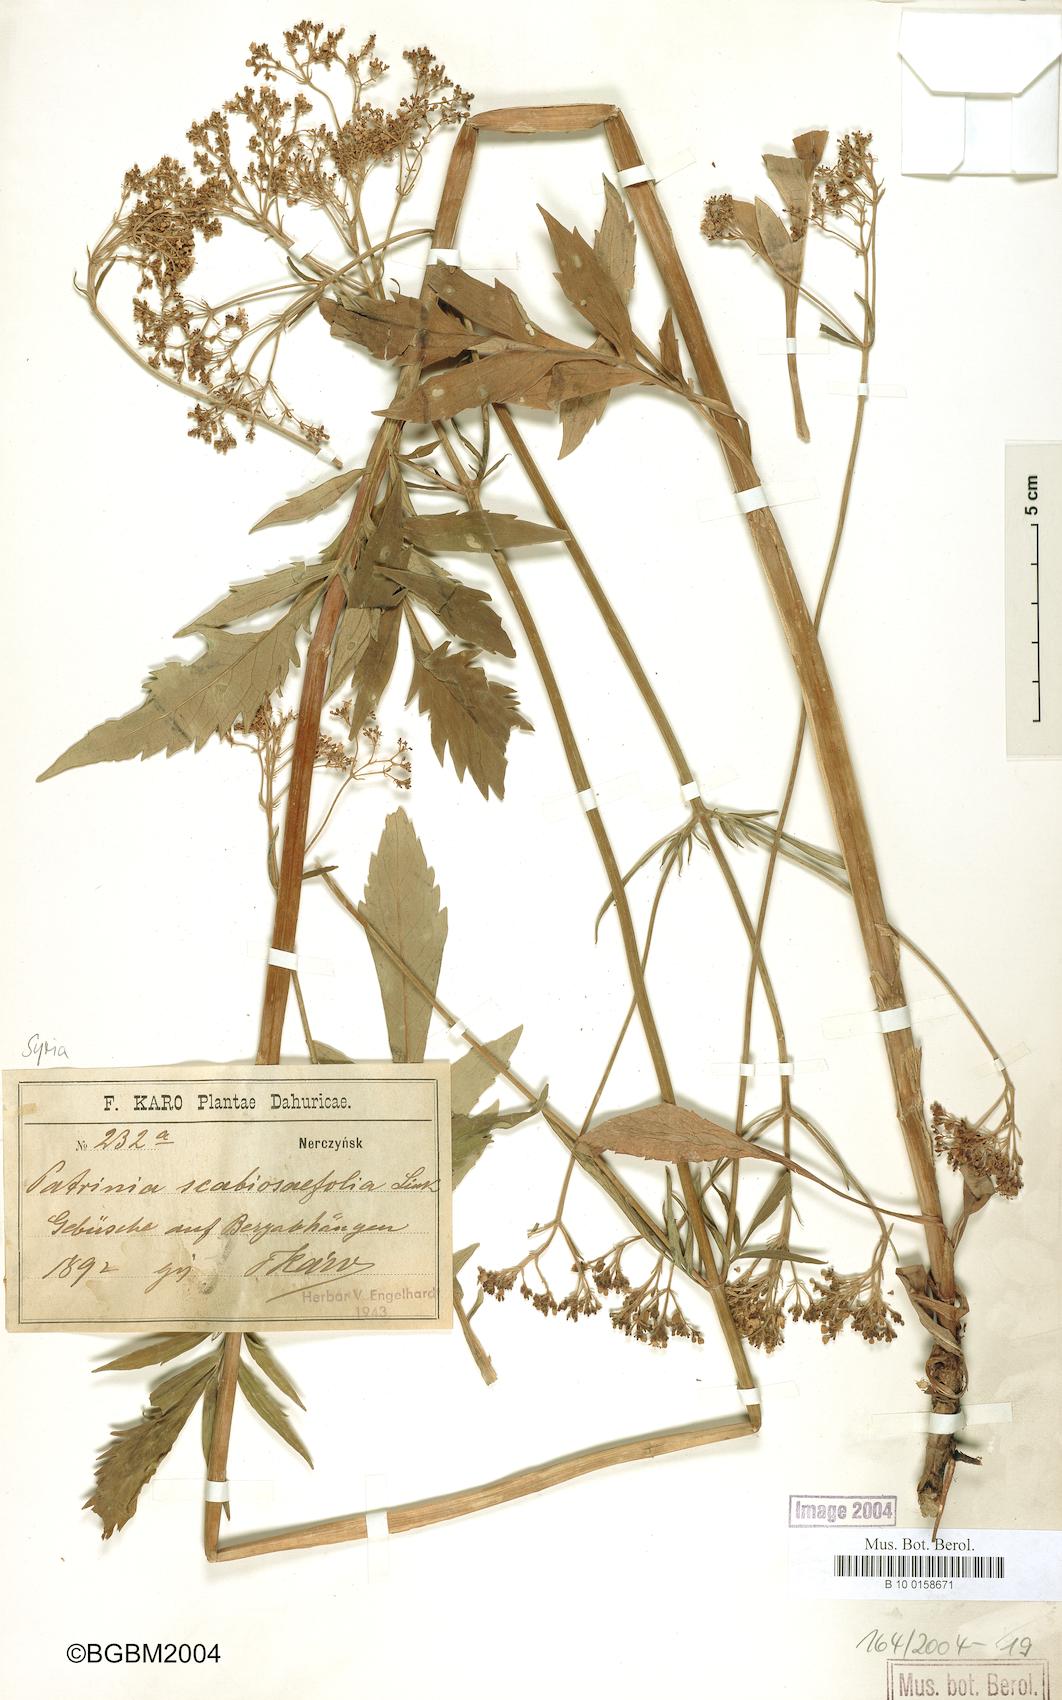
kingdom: Plantae
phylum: Tracheophyta
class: Magnoliopsida
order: Dipsacales
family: Caprifoliaceae
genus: Patrinia
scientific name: Patrinia scabiosifolia
